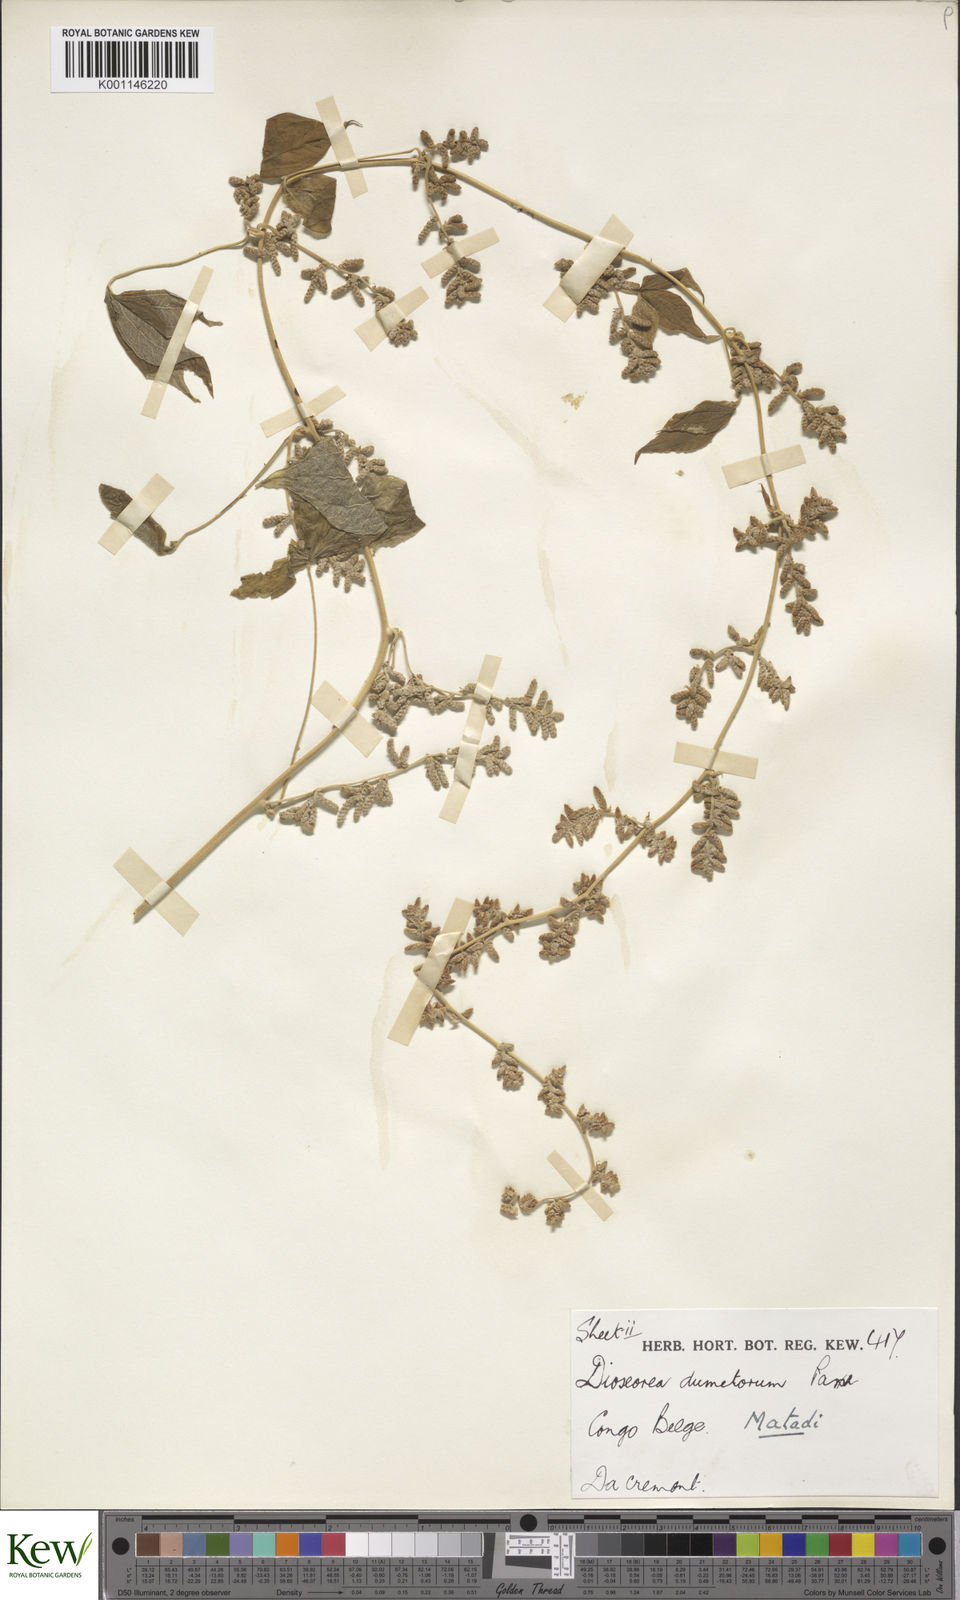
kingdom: Plantae
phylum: Tracheophyta
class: Liliopsida
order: Dioscoreales
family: Dioscoreaceae
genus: Dioscorea
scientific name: Dioscorea dumetorum
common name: African bitter yam
